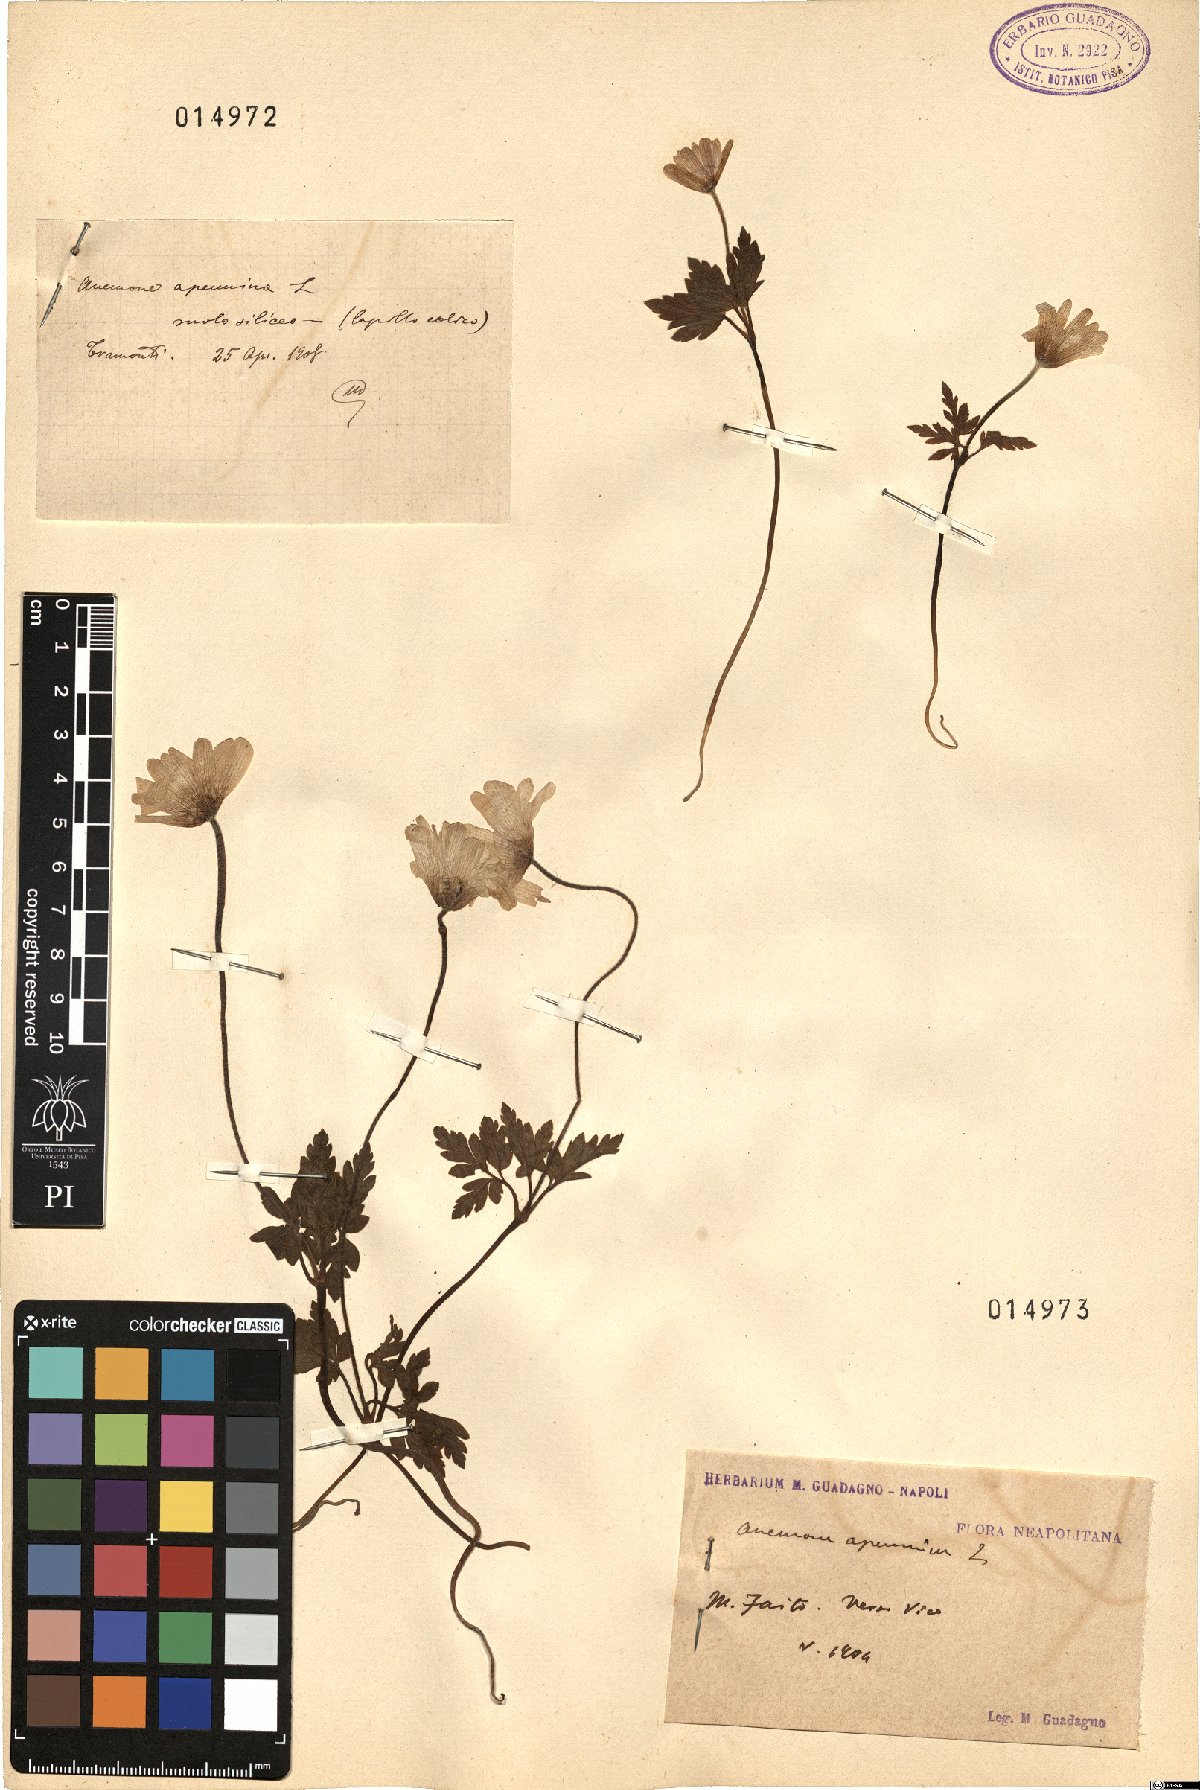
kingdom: Plantae
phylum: Tracheophyta
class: Magnoliopsida
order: Ranunculales
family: Ranunculaceae
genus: Anemone
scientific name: Anemone apennina
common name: Blue anemone
